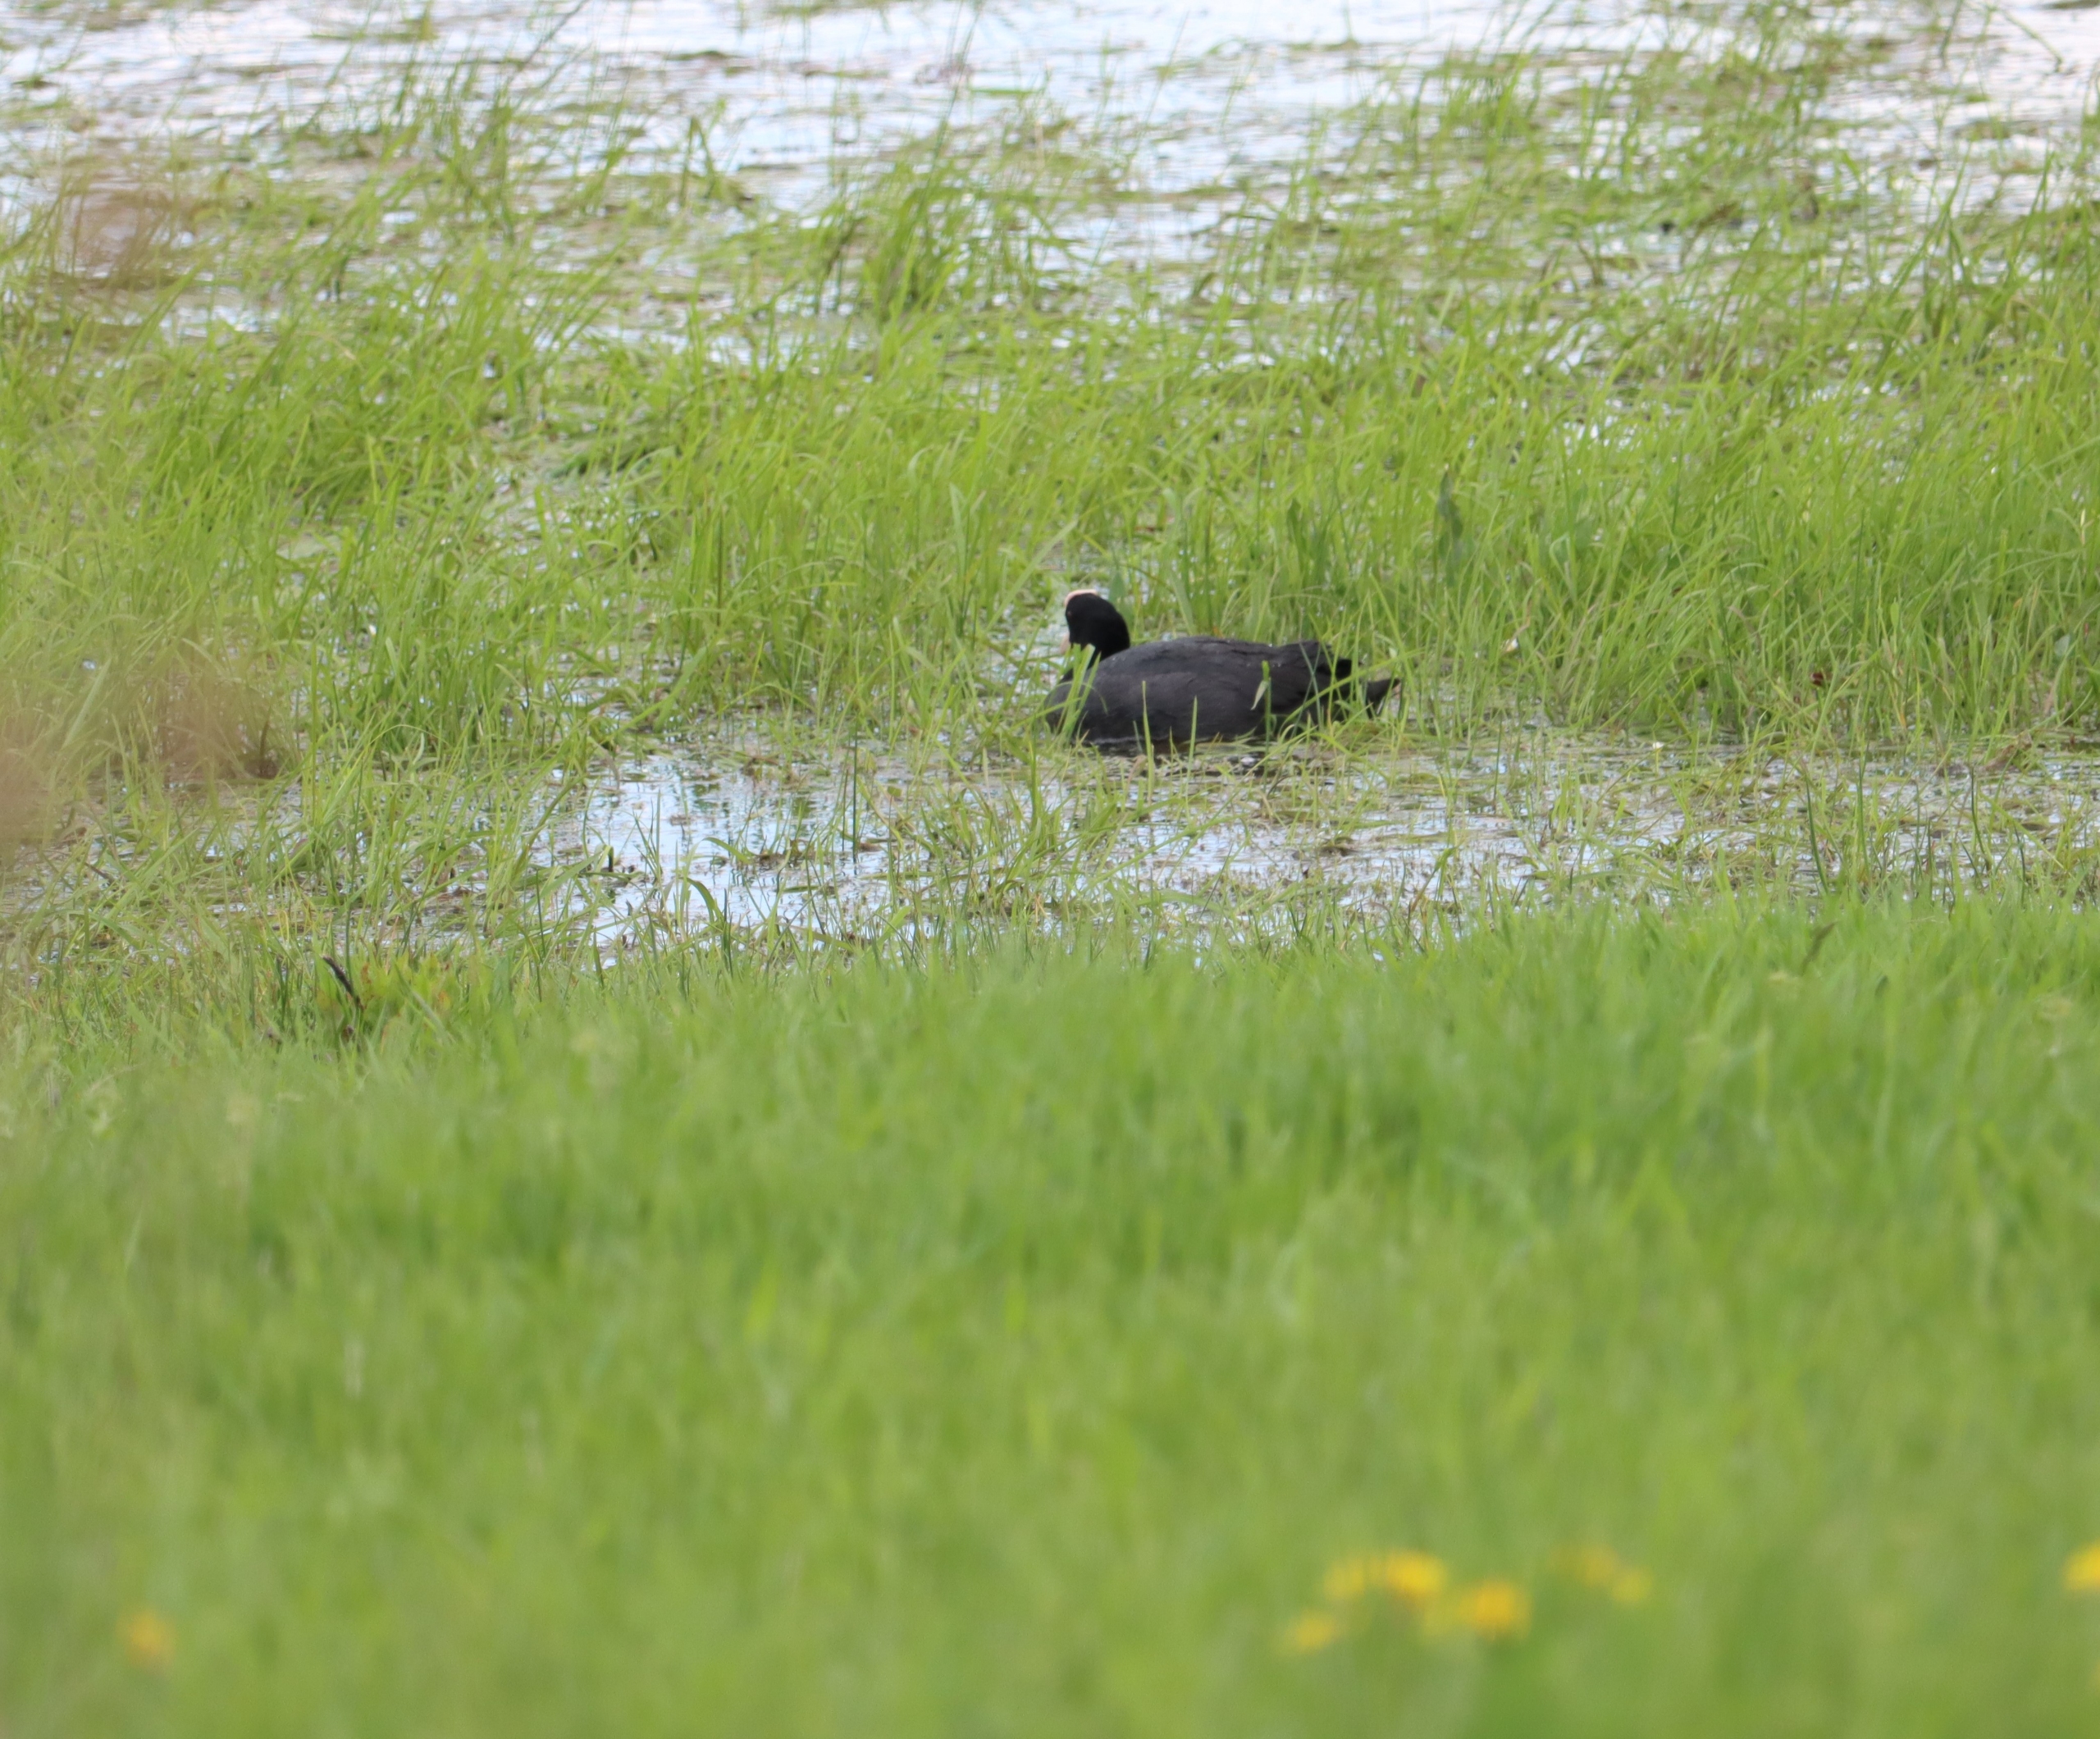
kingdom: Animalia
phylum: Chordata
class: Aves
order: Gruiformes
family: Rallidae
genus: Fulica
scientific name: Fulica atra
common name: Blishøne
